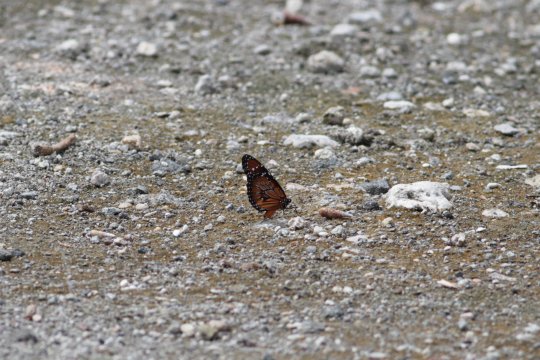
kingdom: Animalia
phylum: Arthropoda
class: Insecta
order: Lepidoptera
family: Nymphalidae
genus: Danaus
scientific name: Danaus gilippus
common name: Queen
